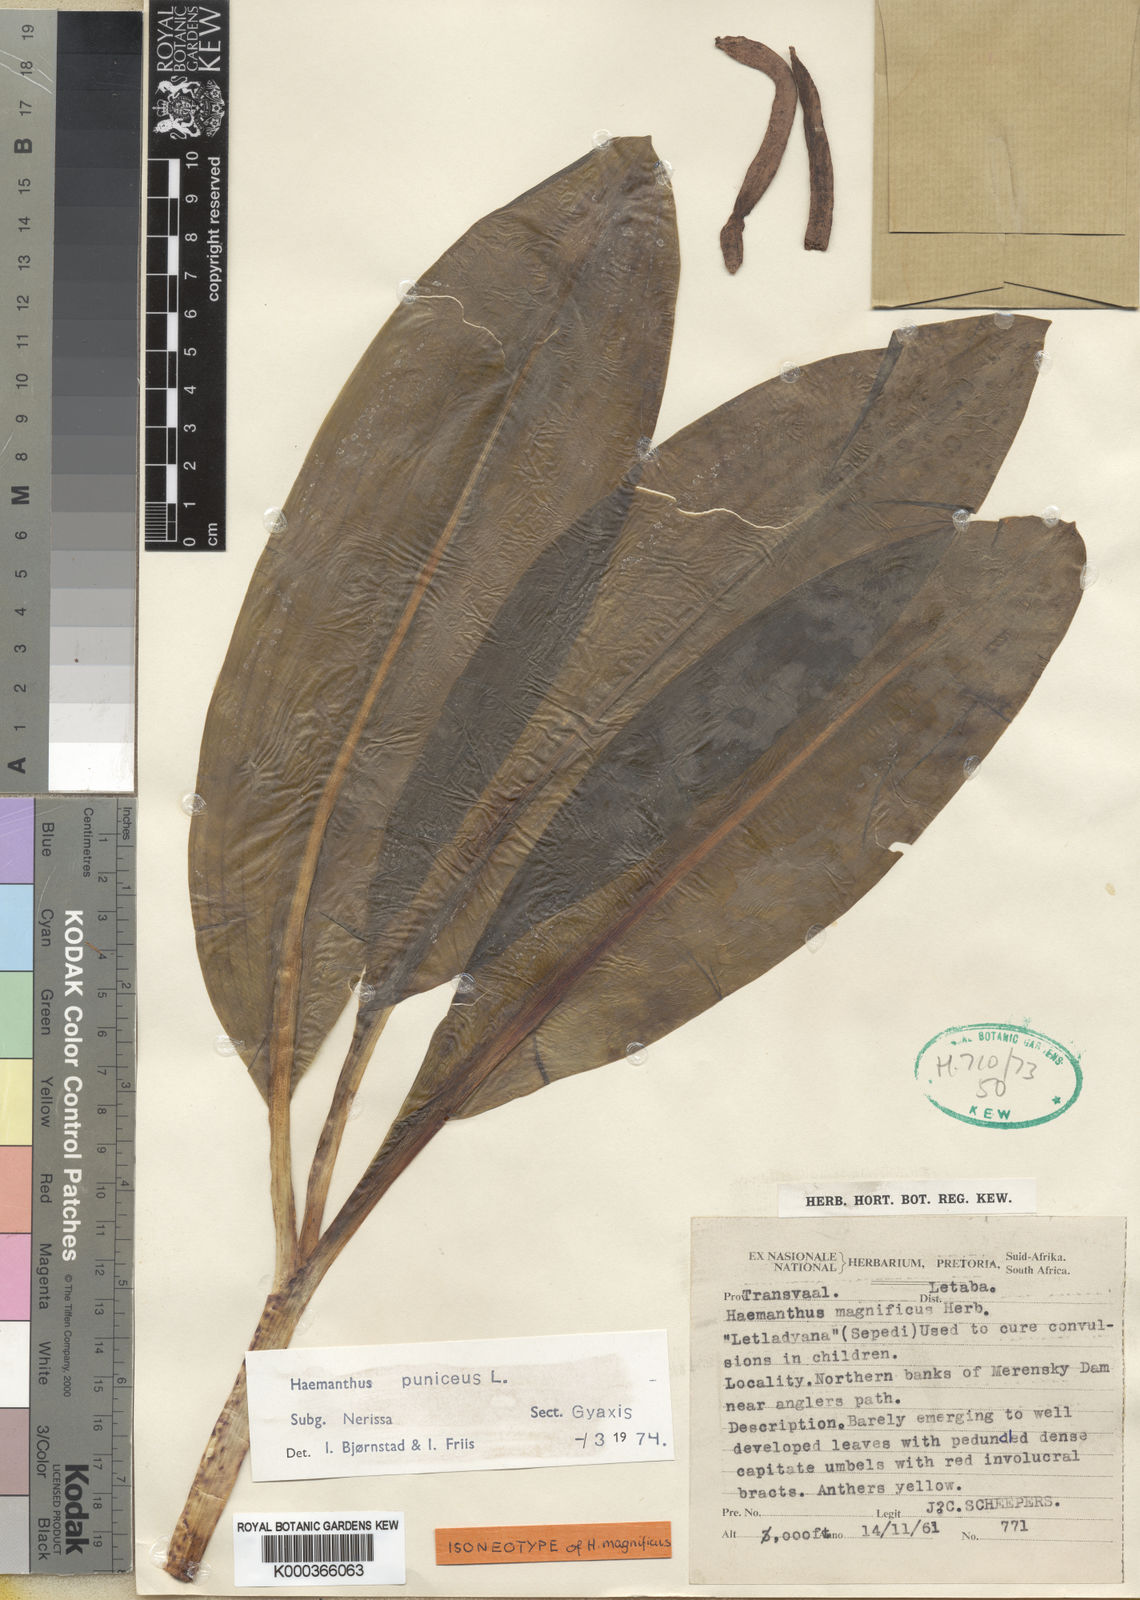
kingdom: Plantae
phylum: Tracheophyta
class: Liliopsida
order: Asparagales
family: Amaryllidaceae
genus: Scadoxus
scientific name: Scadoxus puniceus
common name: Royal-paintbrush
